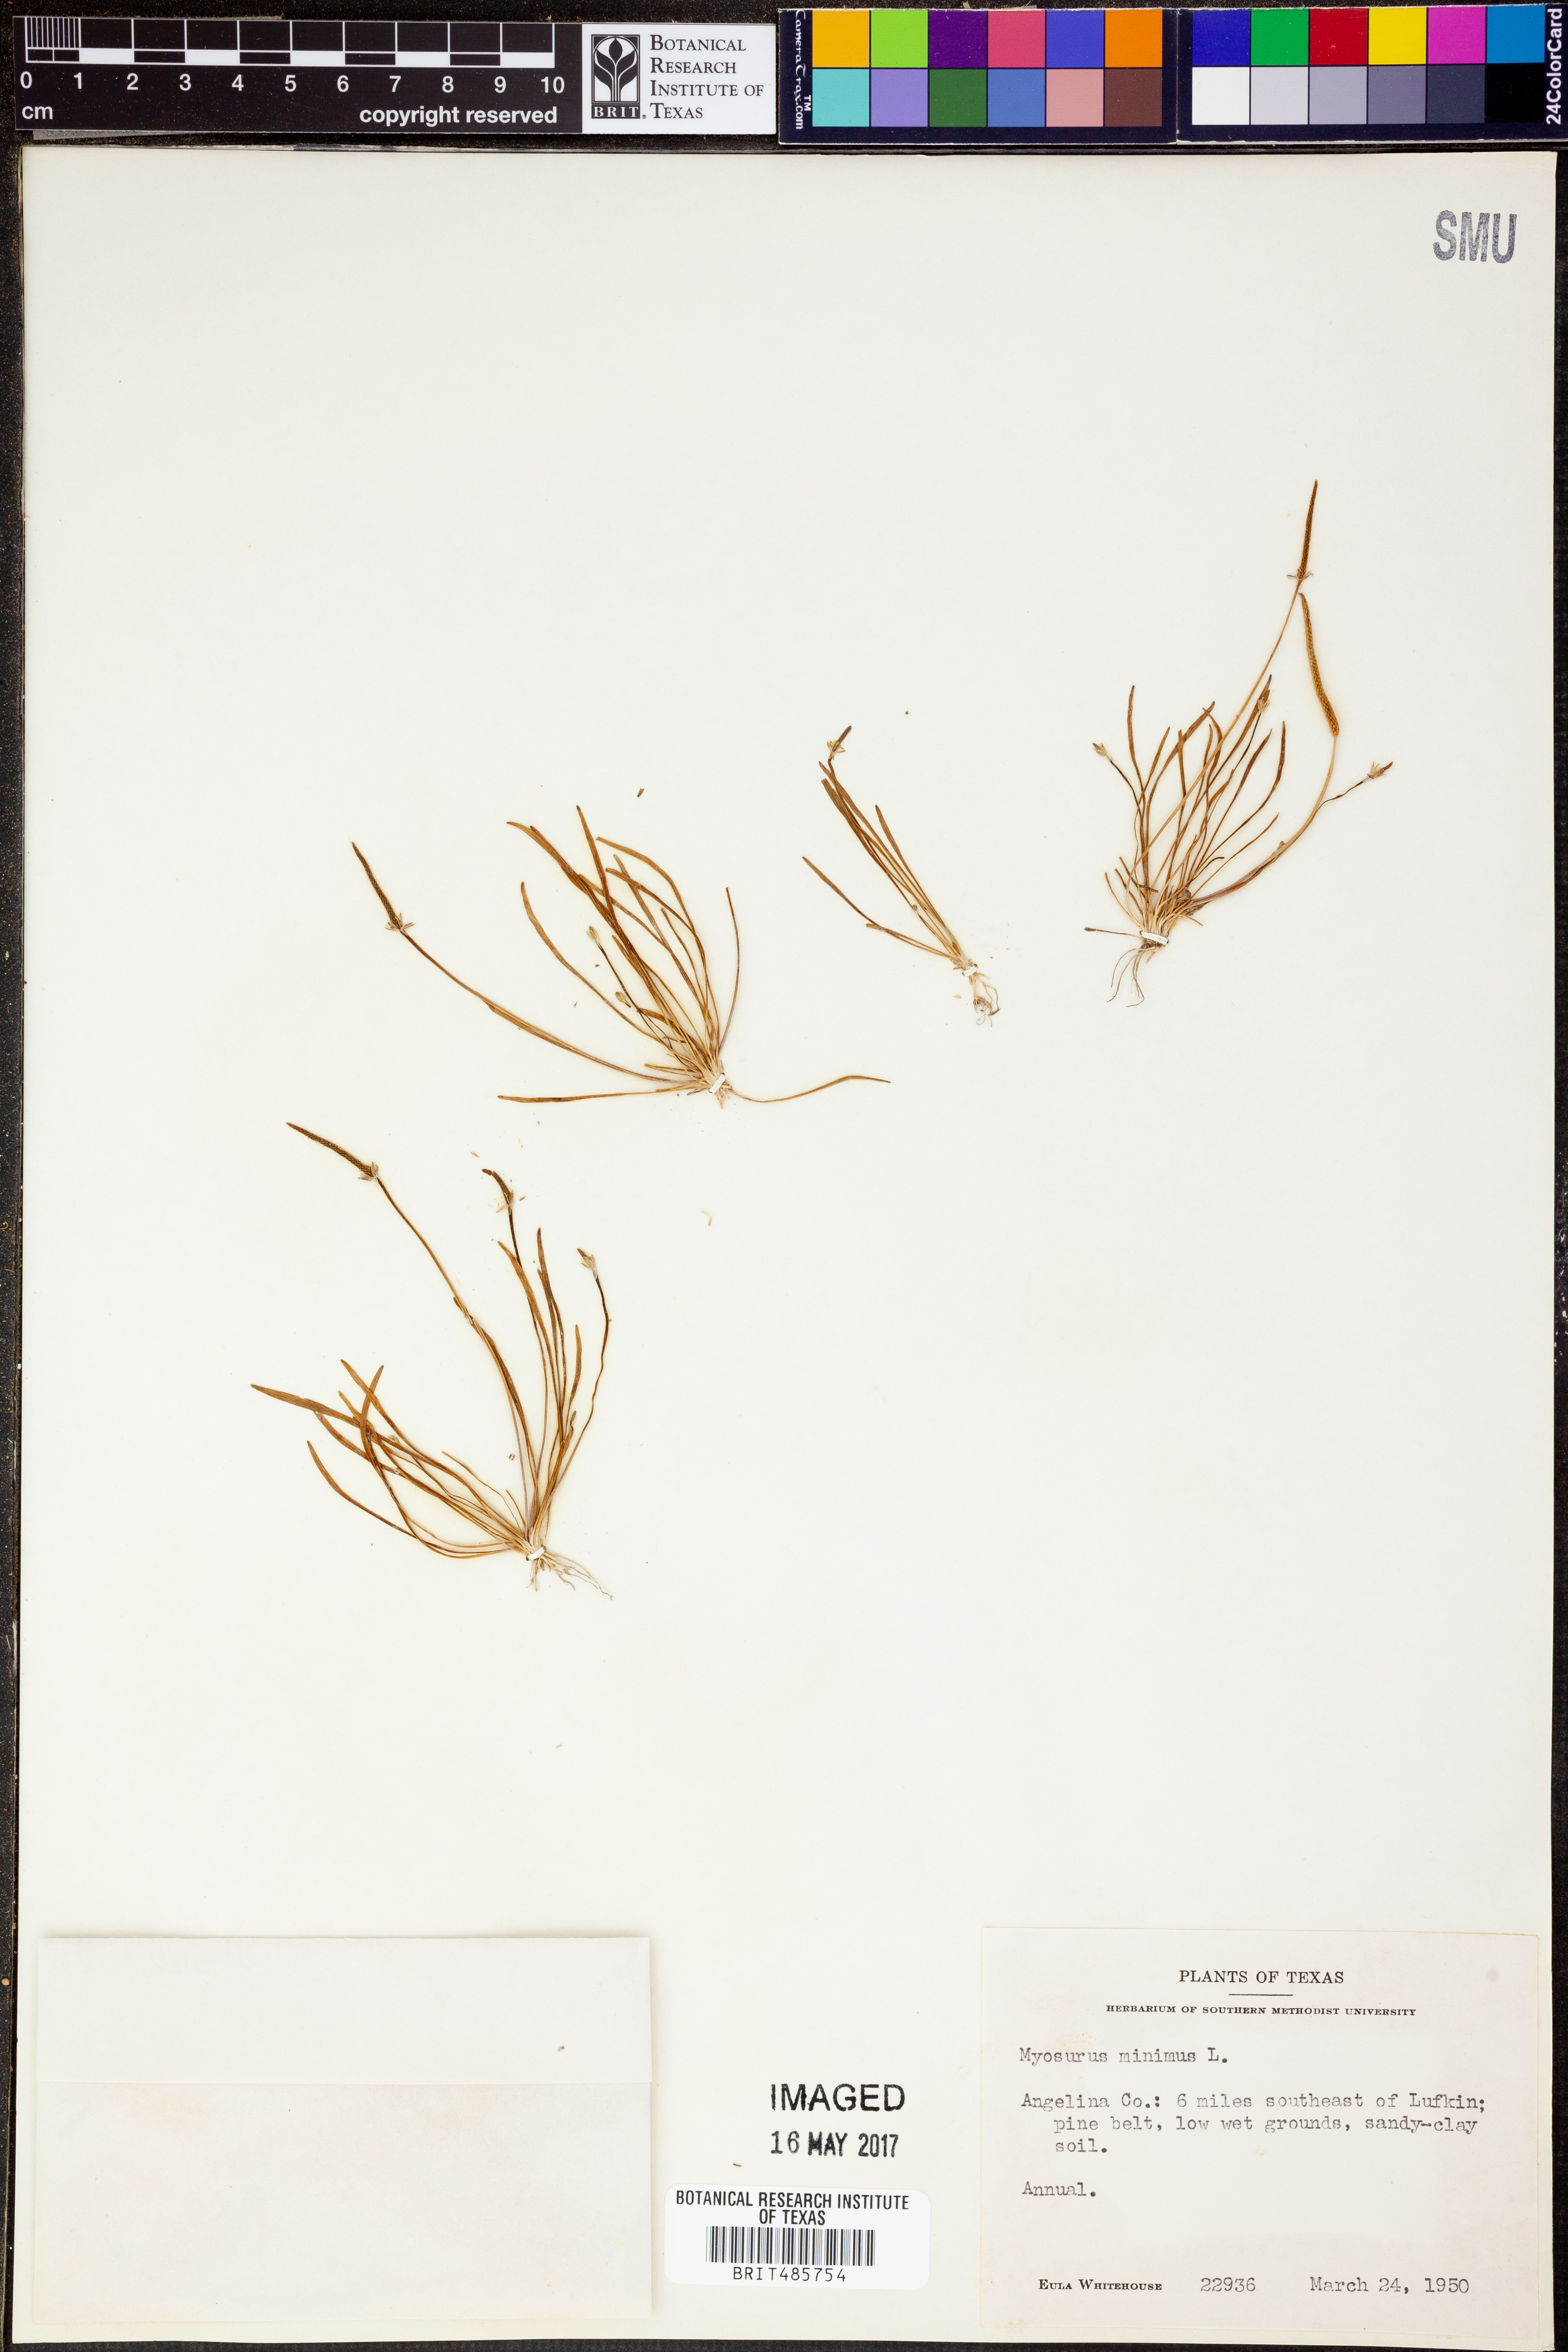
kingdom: Plantae
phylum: Tracheophyta
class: Magnoliopsida
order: Ranunculales
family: Ranunculaceae
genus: Myosurus
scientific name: Myosurus minimus
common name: Mousetail
